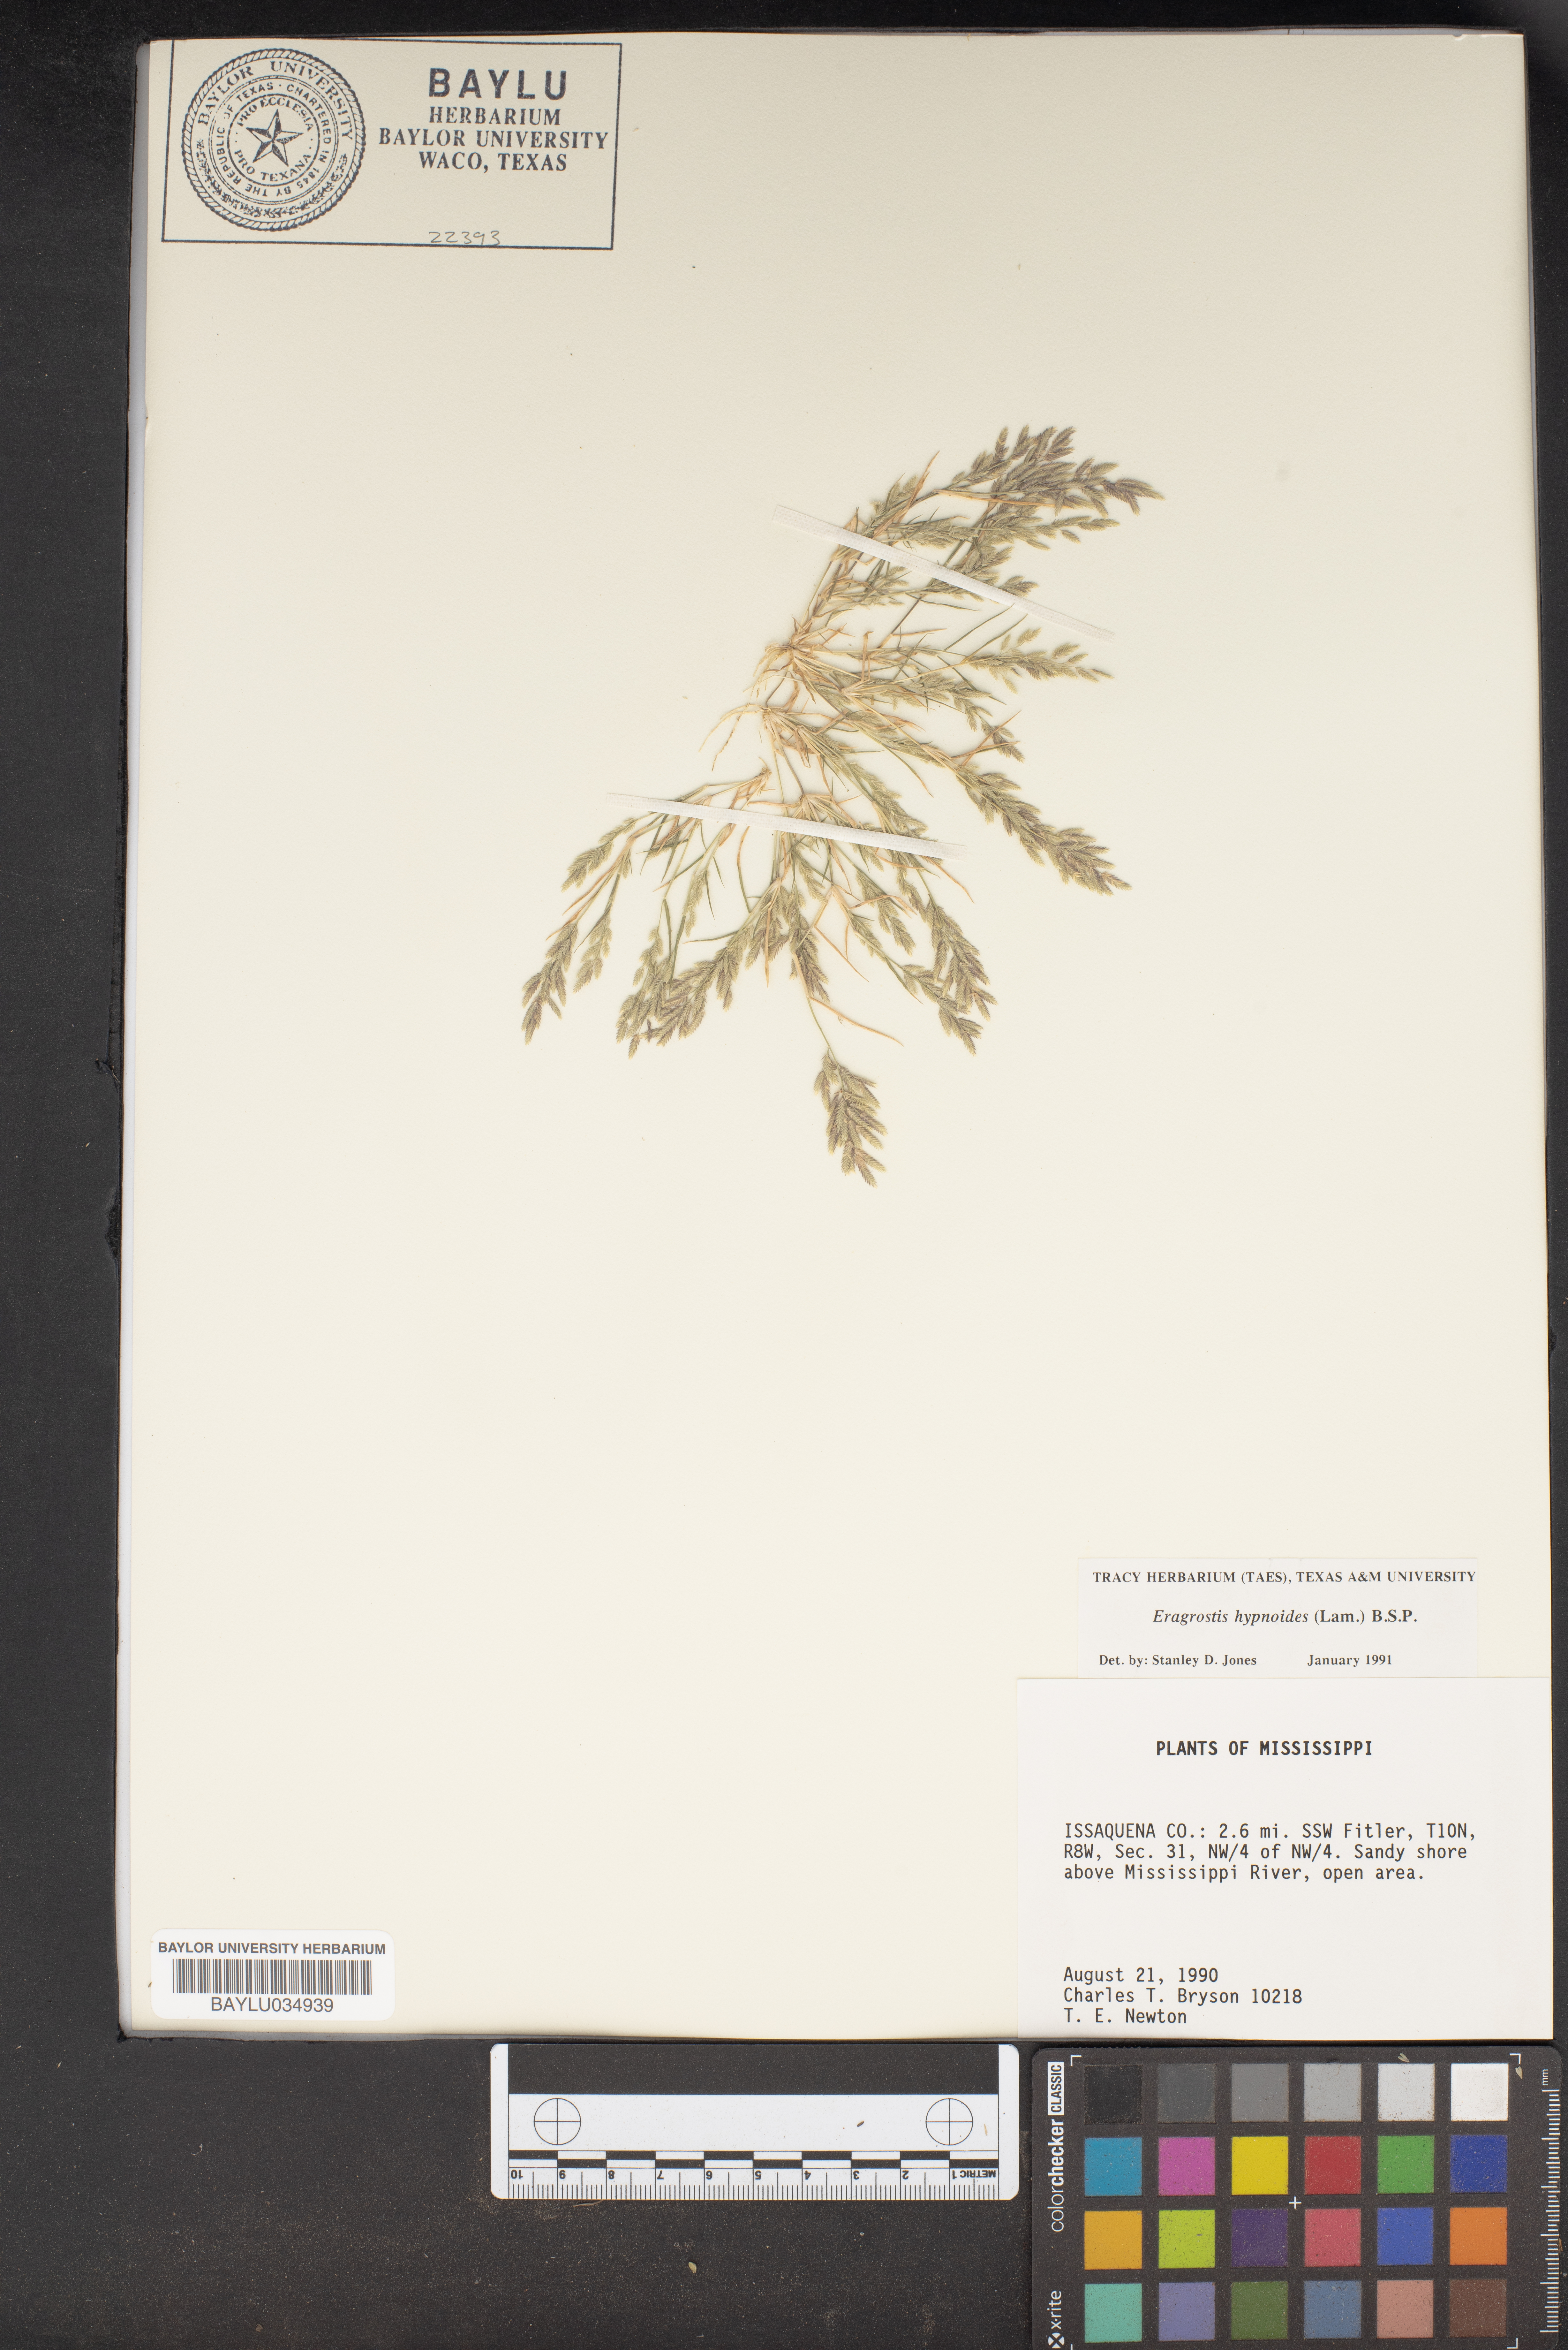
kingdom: Plantae
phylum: Tracheophyta
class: Liliopsida
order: Poales
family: Poaceae
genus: Eragrostis
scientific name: Eragrostis hypnoides
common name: Creeping love grass
